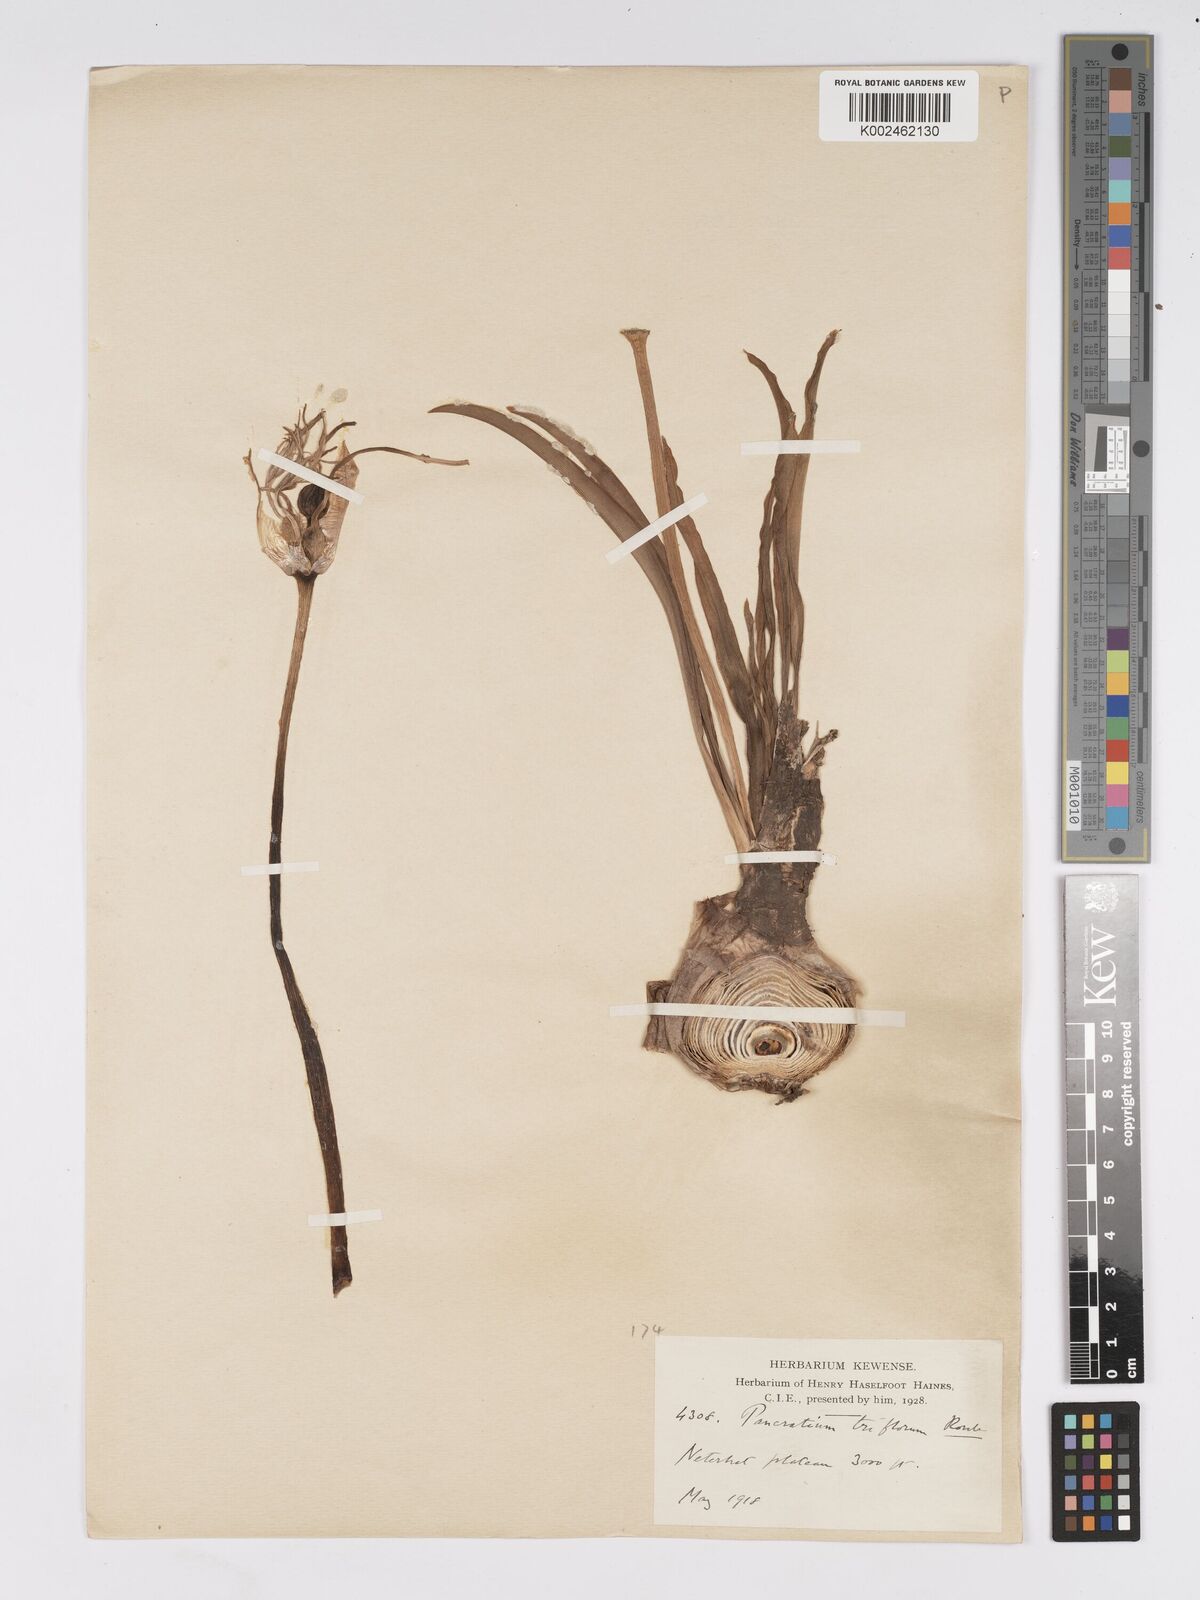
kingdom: Plantae
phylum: Tracheophyta
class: Liliopsida
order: Asparagales
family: Amaryllidaceae
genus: Pancratium
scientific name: Pancratium verecundum
